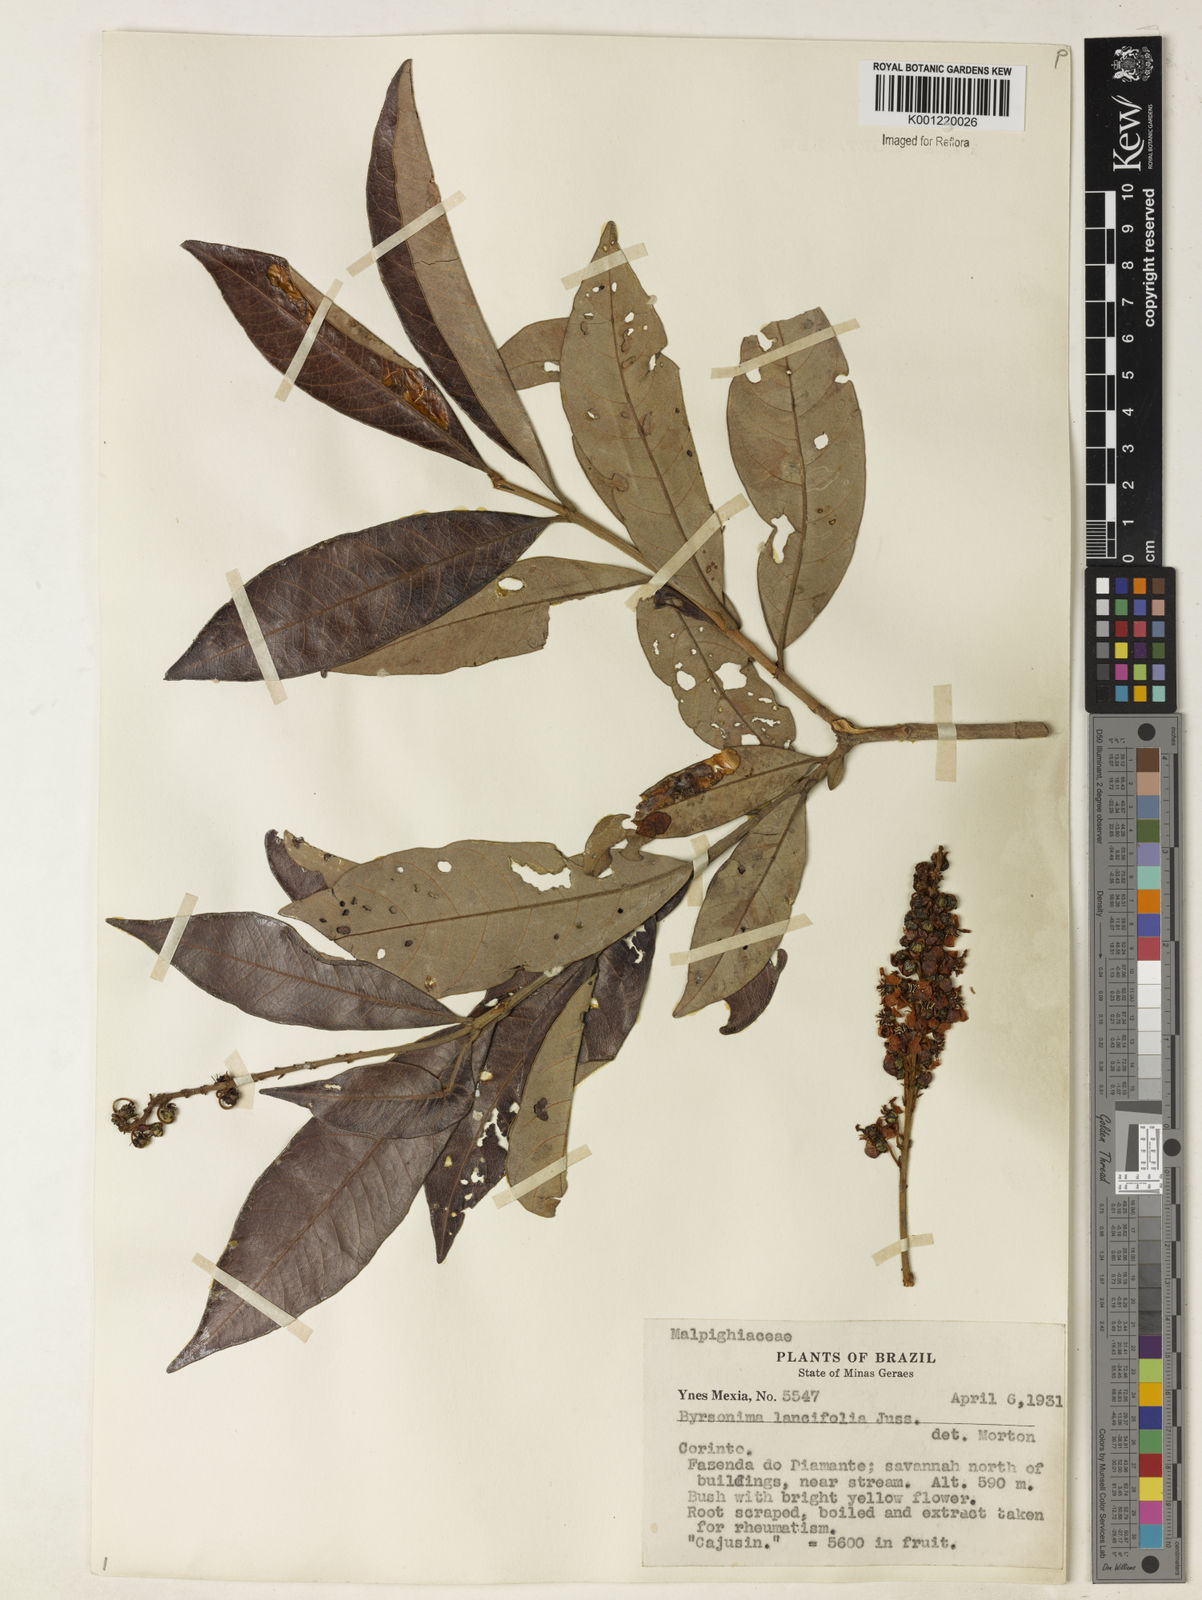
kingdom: Plantae
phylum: Tracheophyta
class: Magnoliopsida
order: Malpighiales
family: Malpighiaceae
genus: Byrsonima
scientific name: Byrsonima lancifolia
